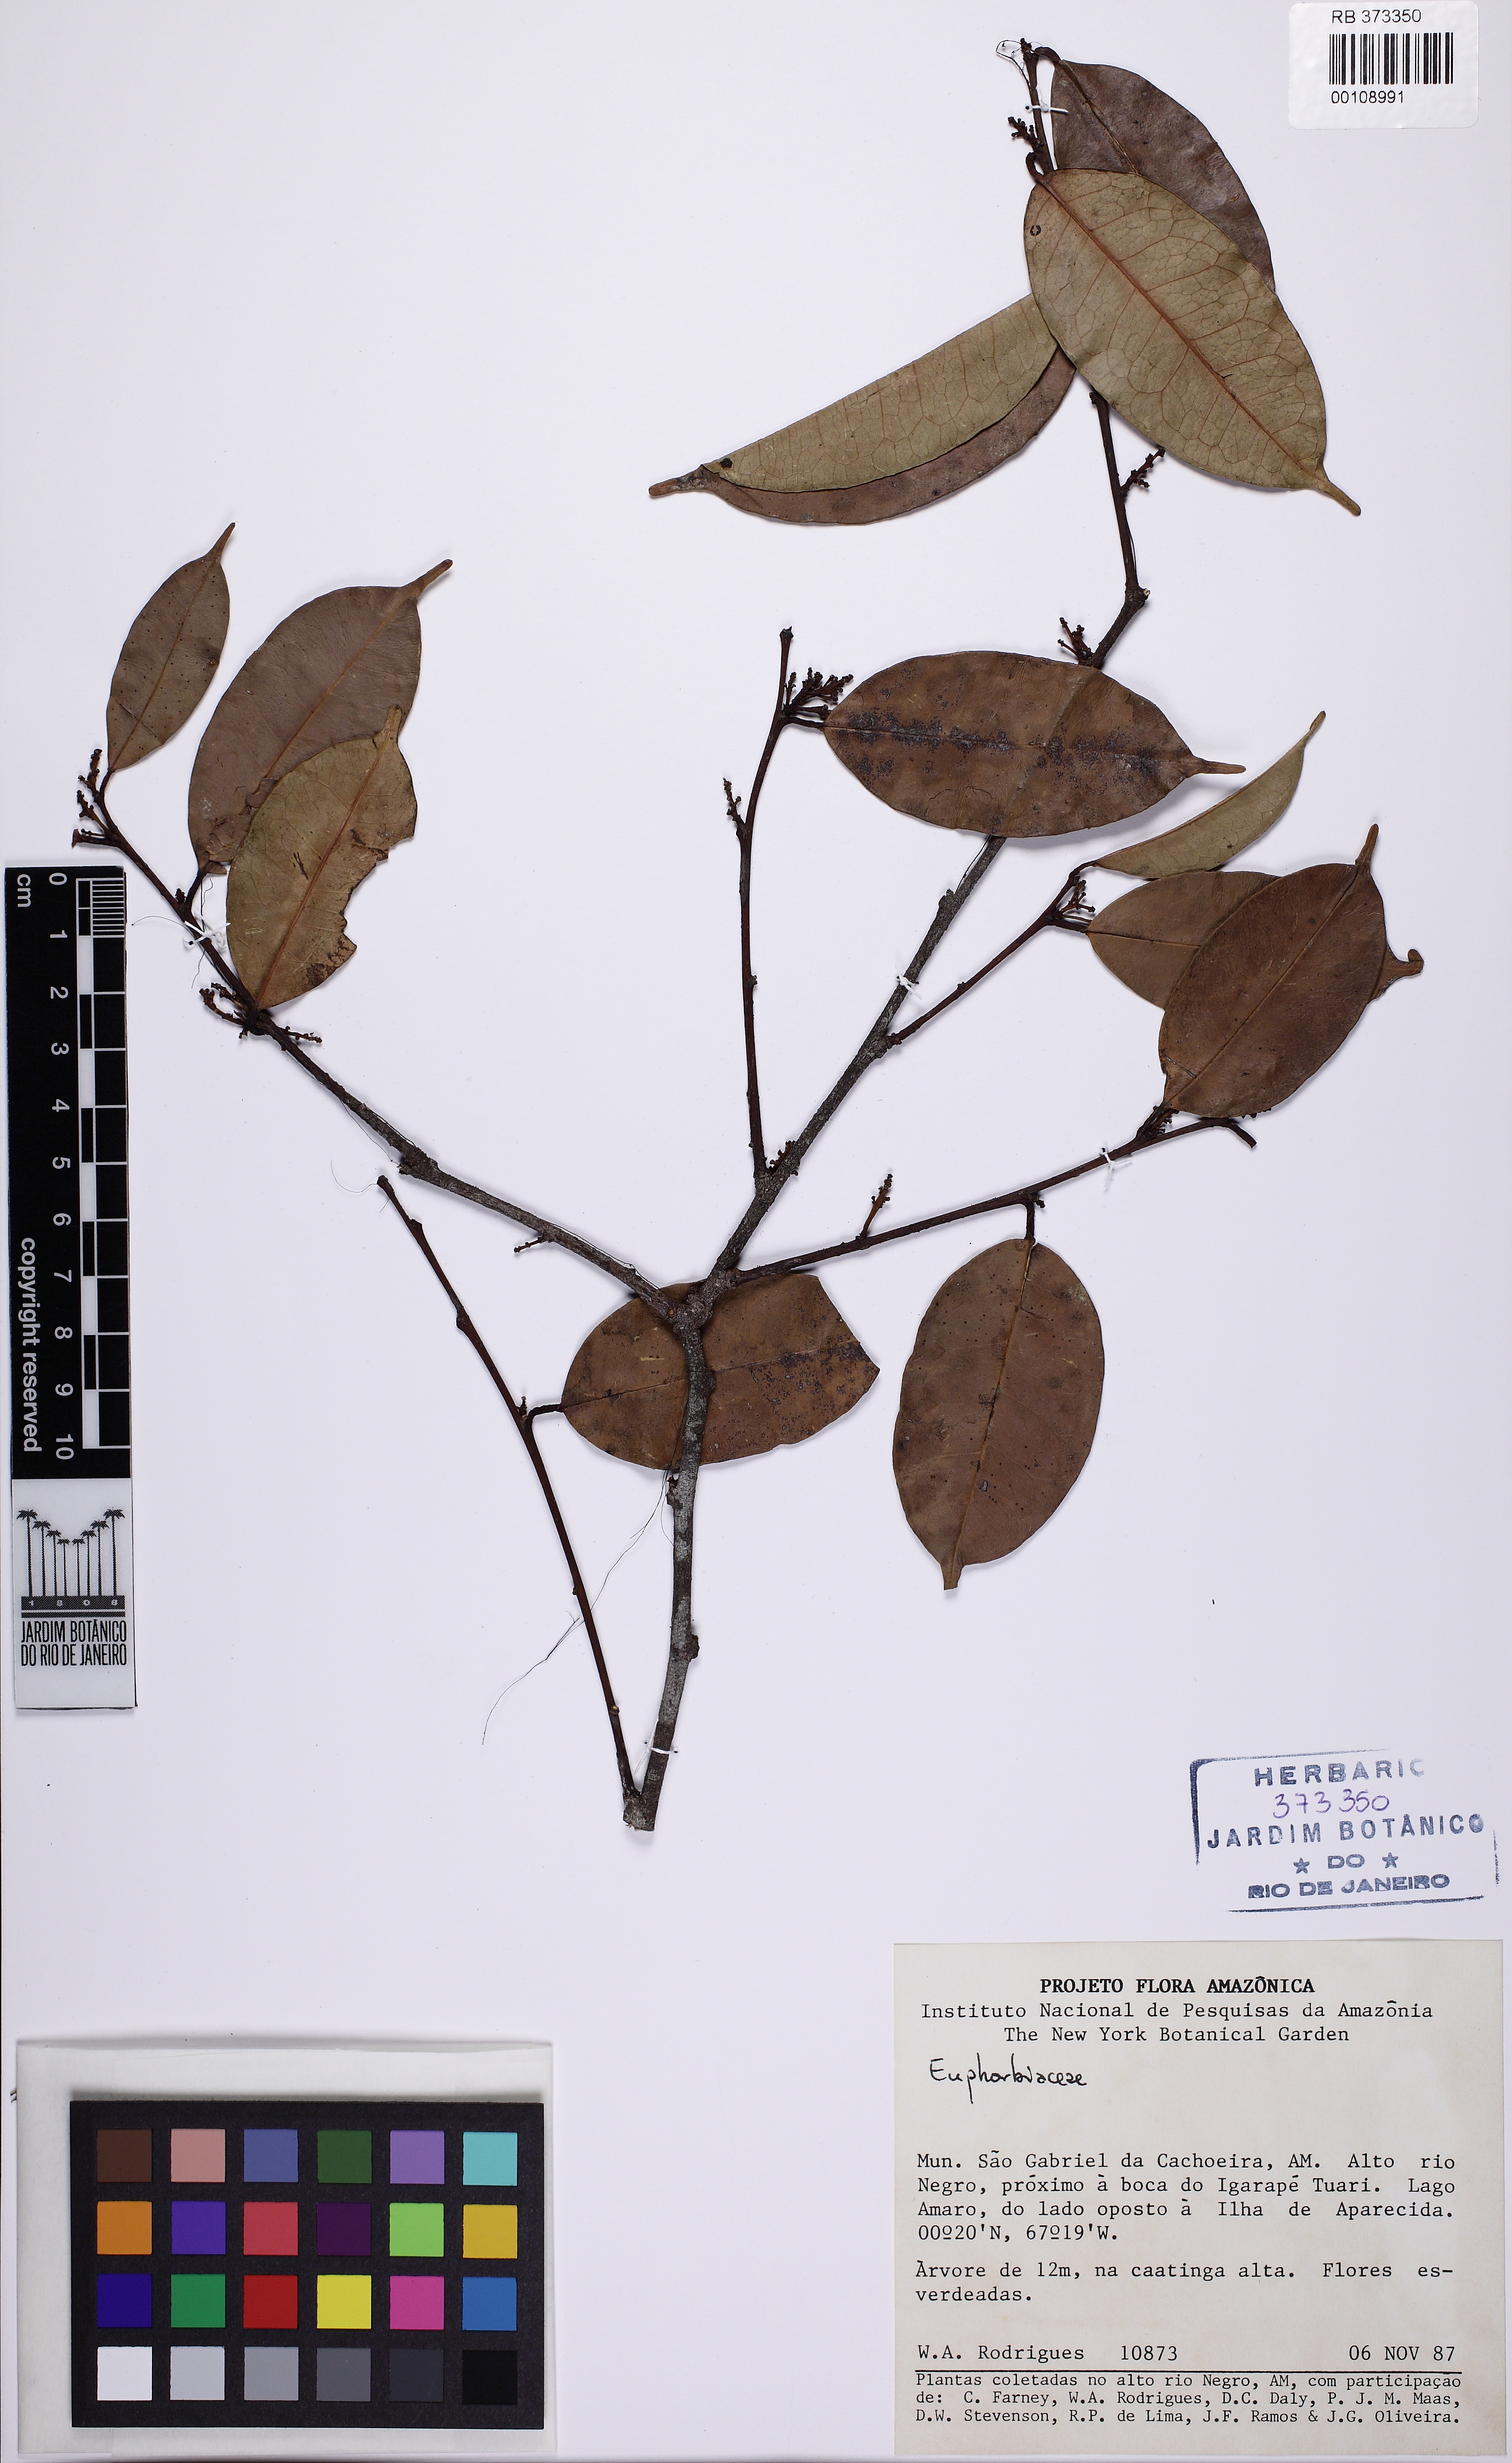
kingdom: Plantae
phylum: Tracheophyta
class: Magnoliopsida
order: Malpighiales
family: Euphorbiaceae
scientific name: Euphorbiaceae
